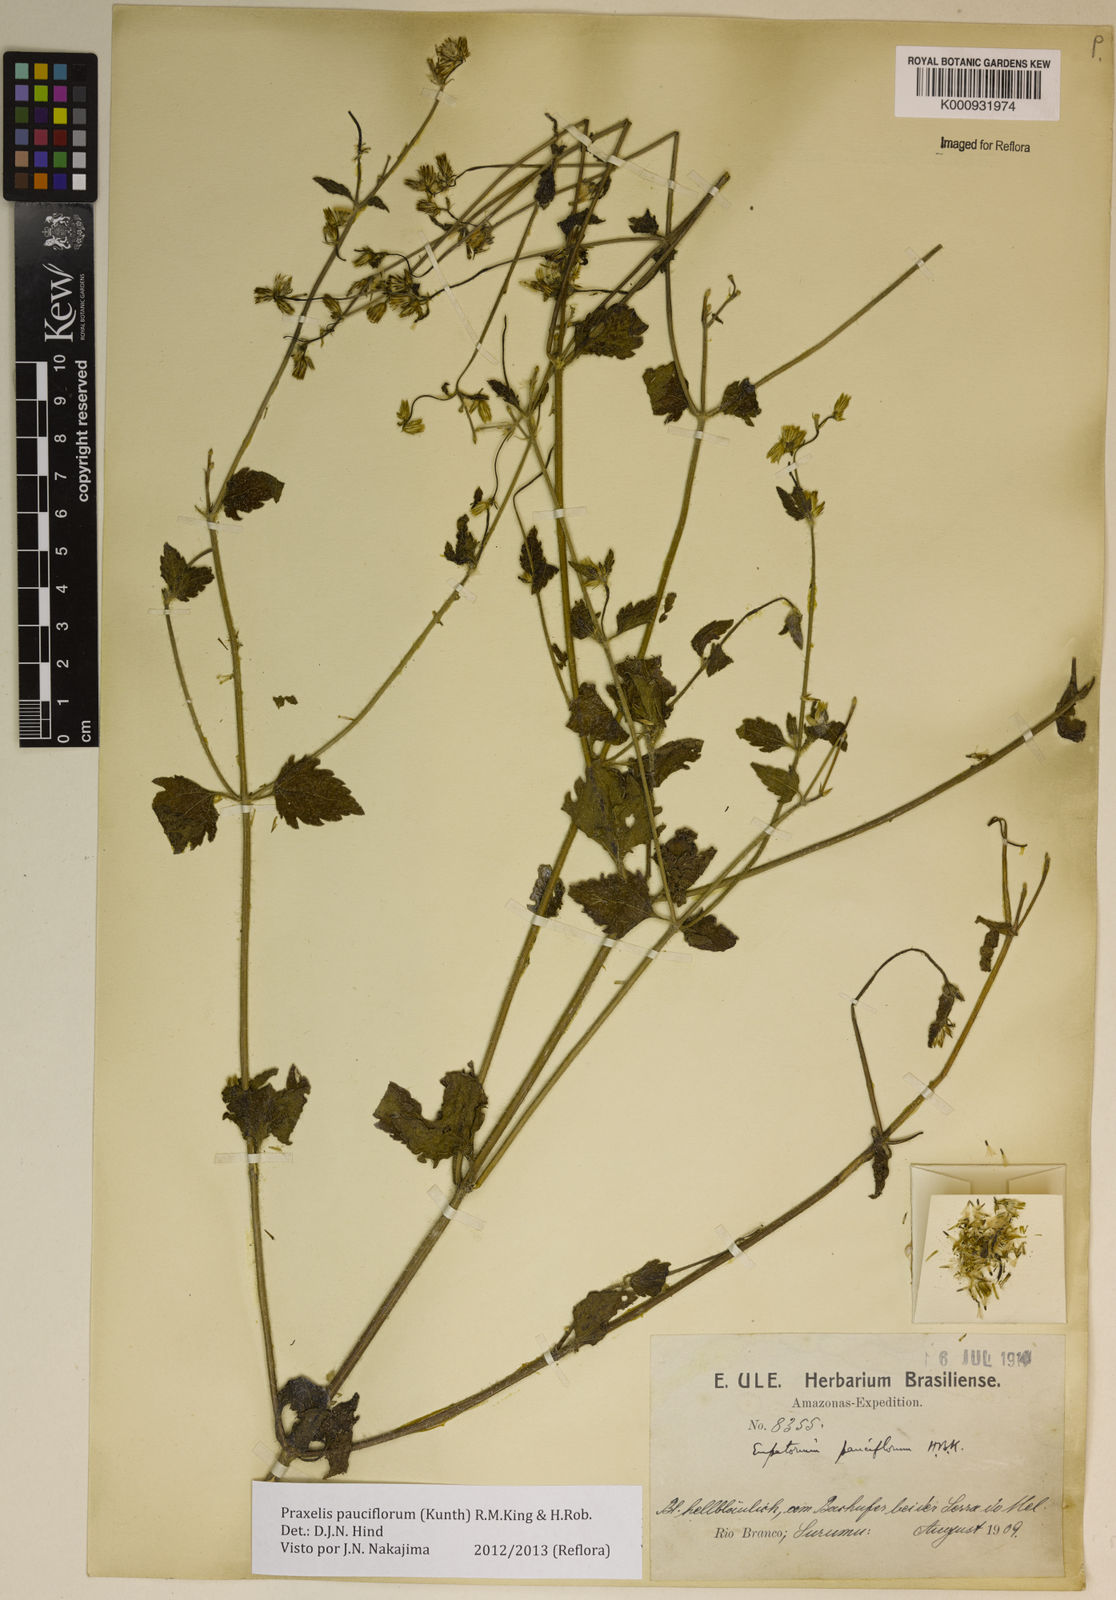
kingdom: Plantae
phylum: Tracheophyta
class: Magnoliopsida
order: Asterales
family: Asteraceae
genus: Praxelis
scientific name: Praxelis diffusa
